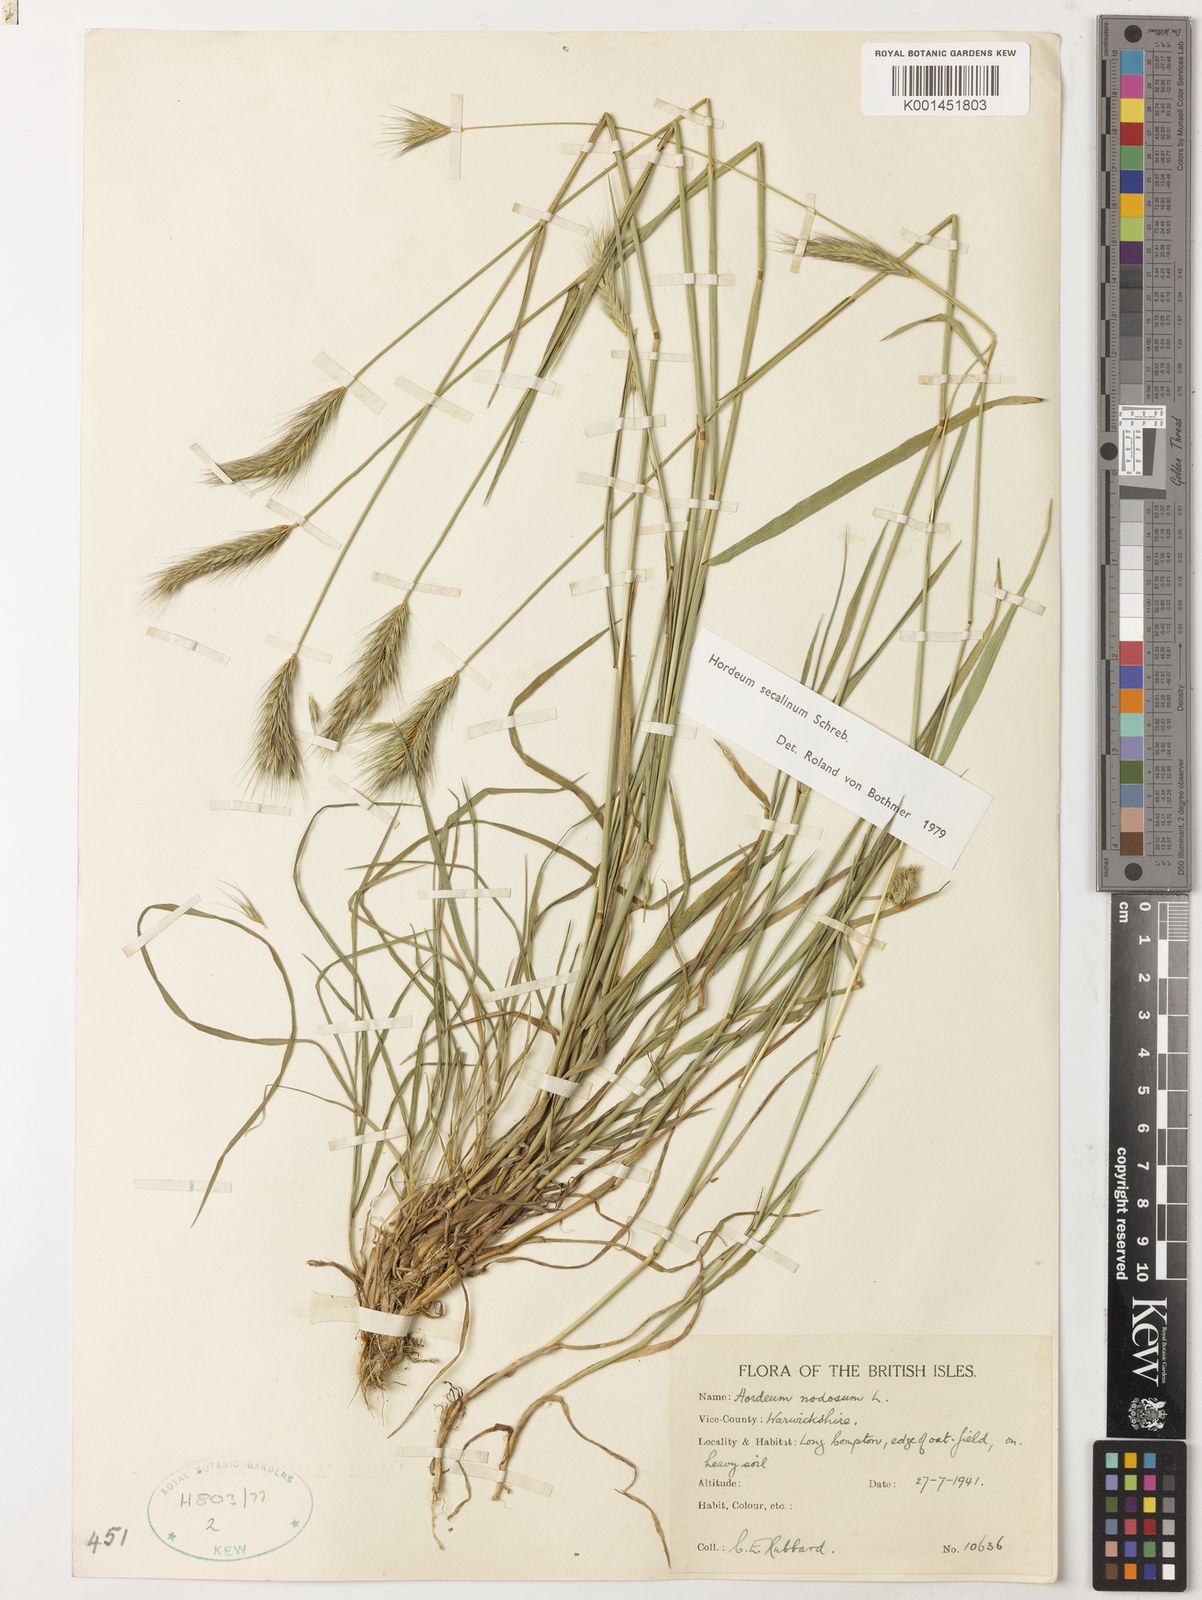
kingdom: Plantae
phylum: Tracheophyta
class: Liliopsida
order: Poales
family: Poaceae
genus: Hordeum
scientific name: Hordeum secalinum
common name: Meadow barley
